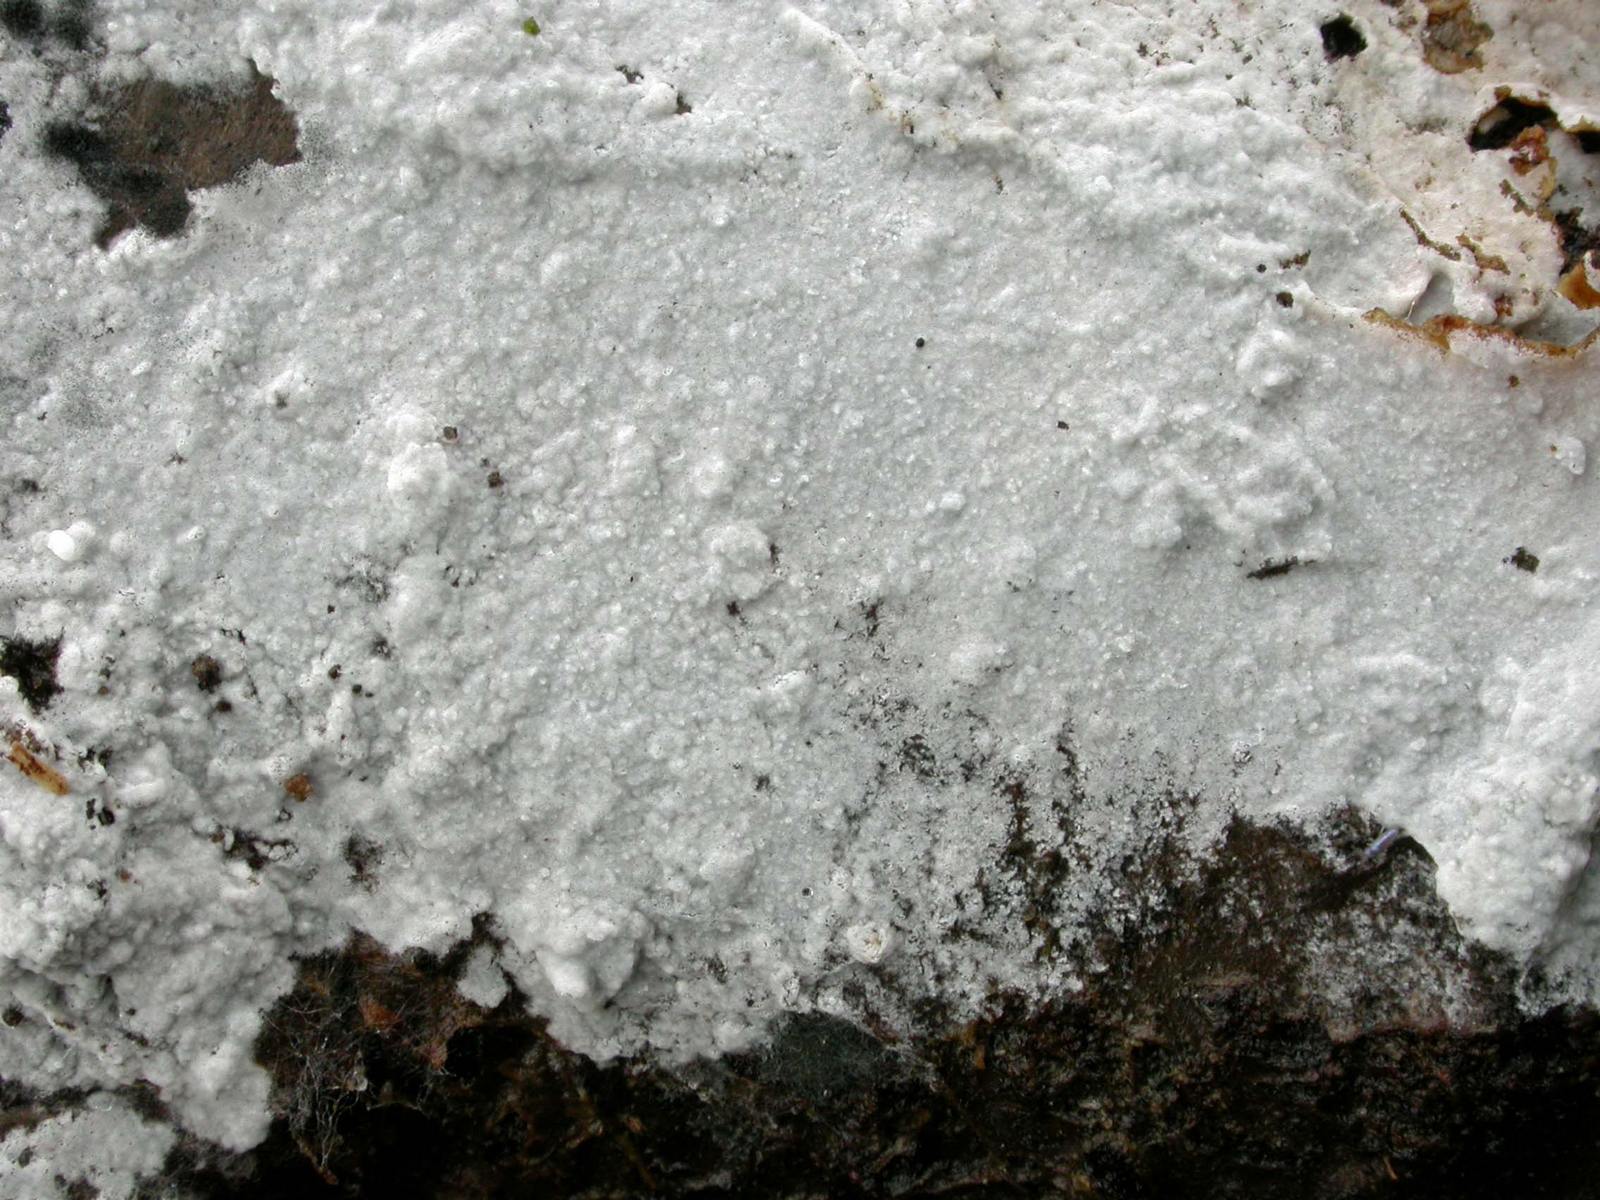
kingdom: Fungi
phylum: Basidiomycota
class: Agaricomycetes
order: Atheliales
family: Atheliaceae
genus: Athelia
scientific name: Athelia epiphylla
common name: almindelig barkhinde
